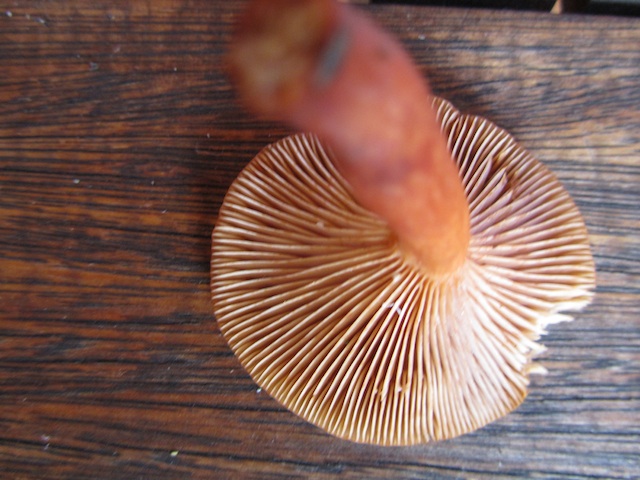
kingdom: Fungi
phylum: Basidiomycota
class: Agaricomycetes
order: Russulales
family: Russulaceae
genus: Lactarius
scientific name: Lactarius lacunarum
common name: sump-mælkehat
